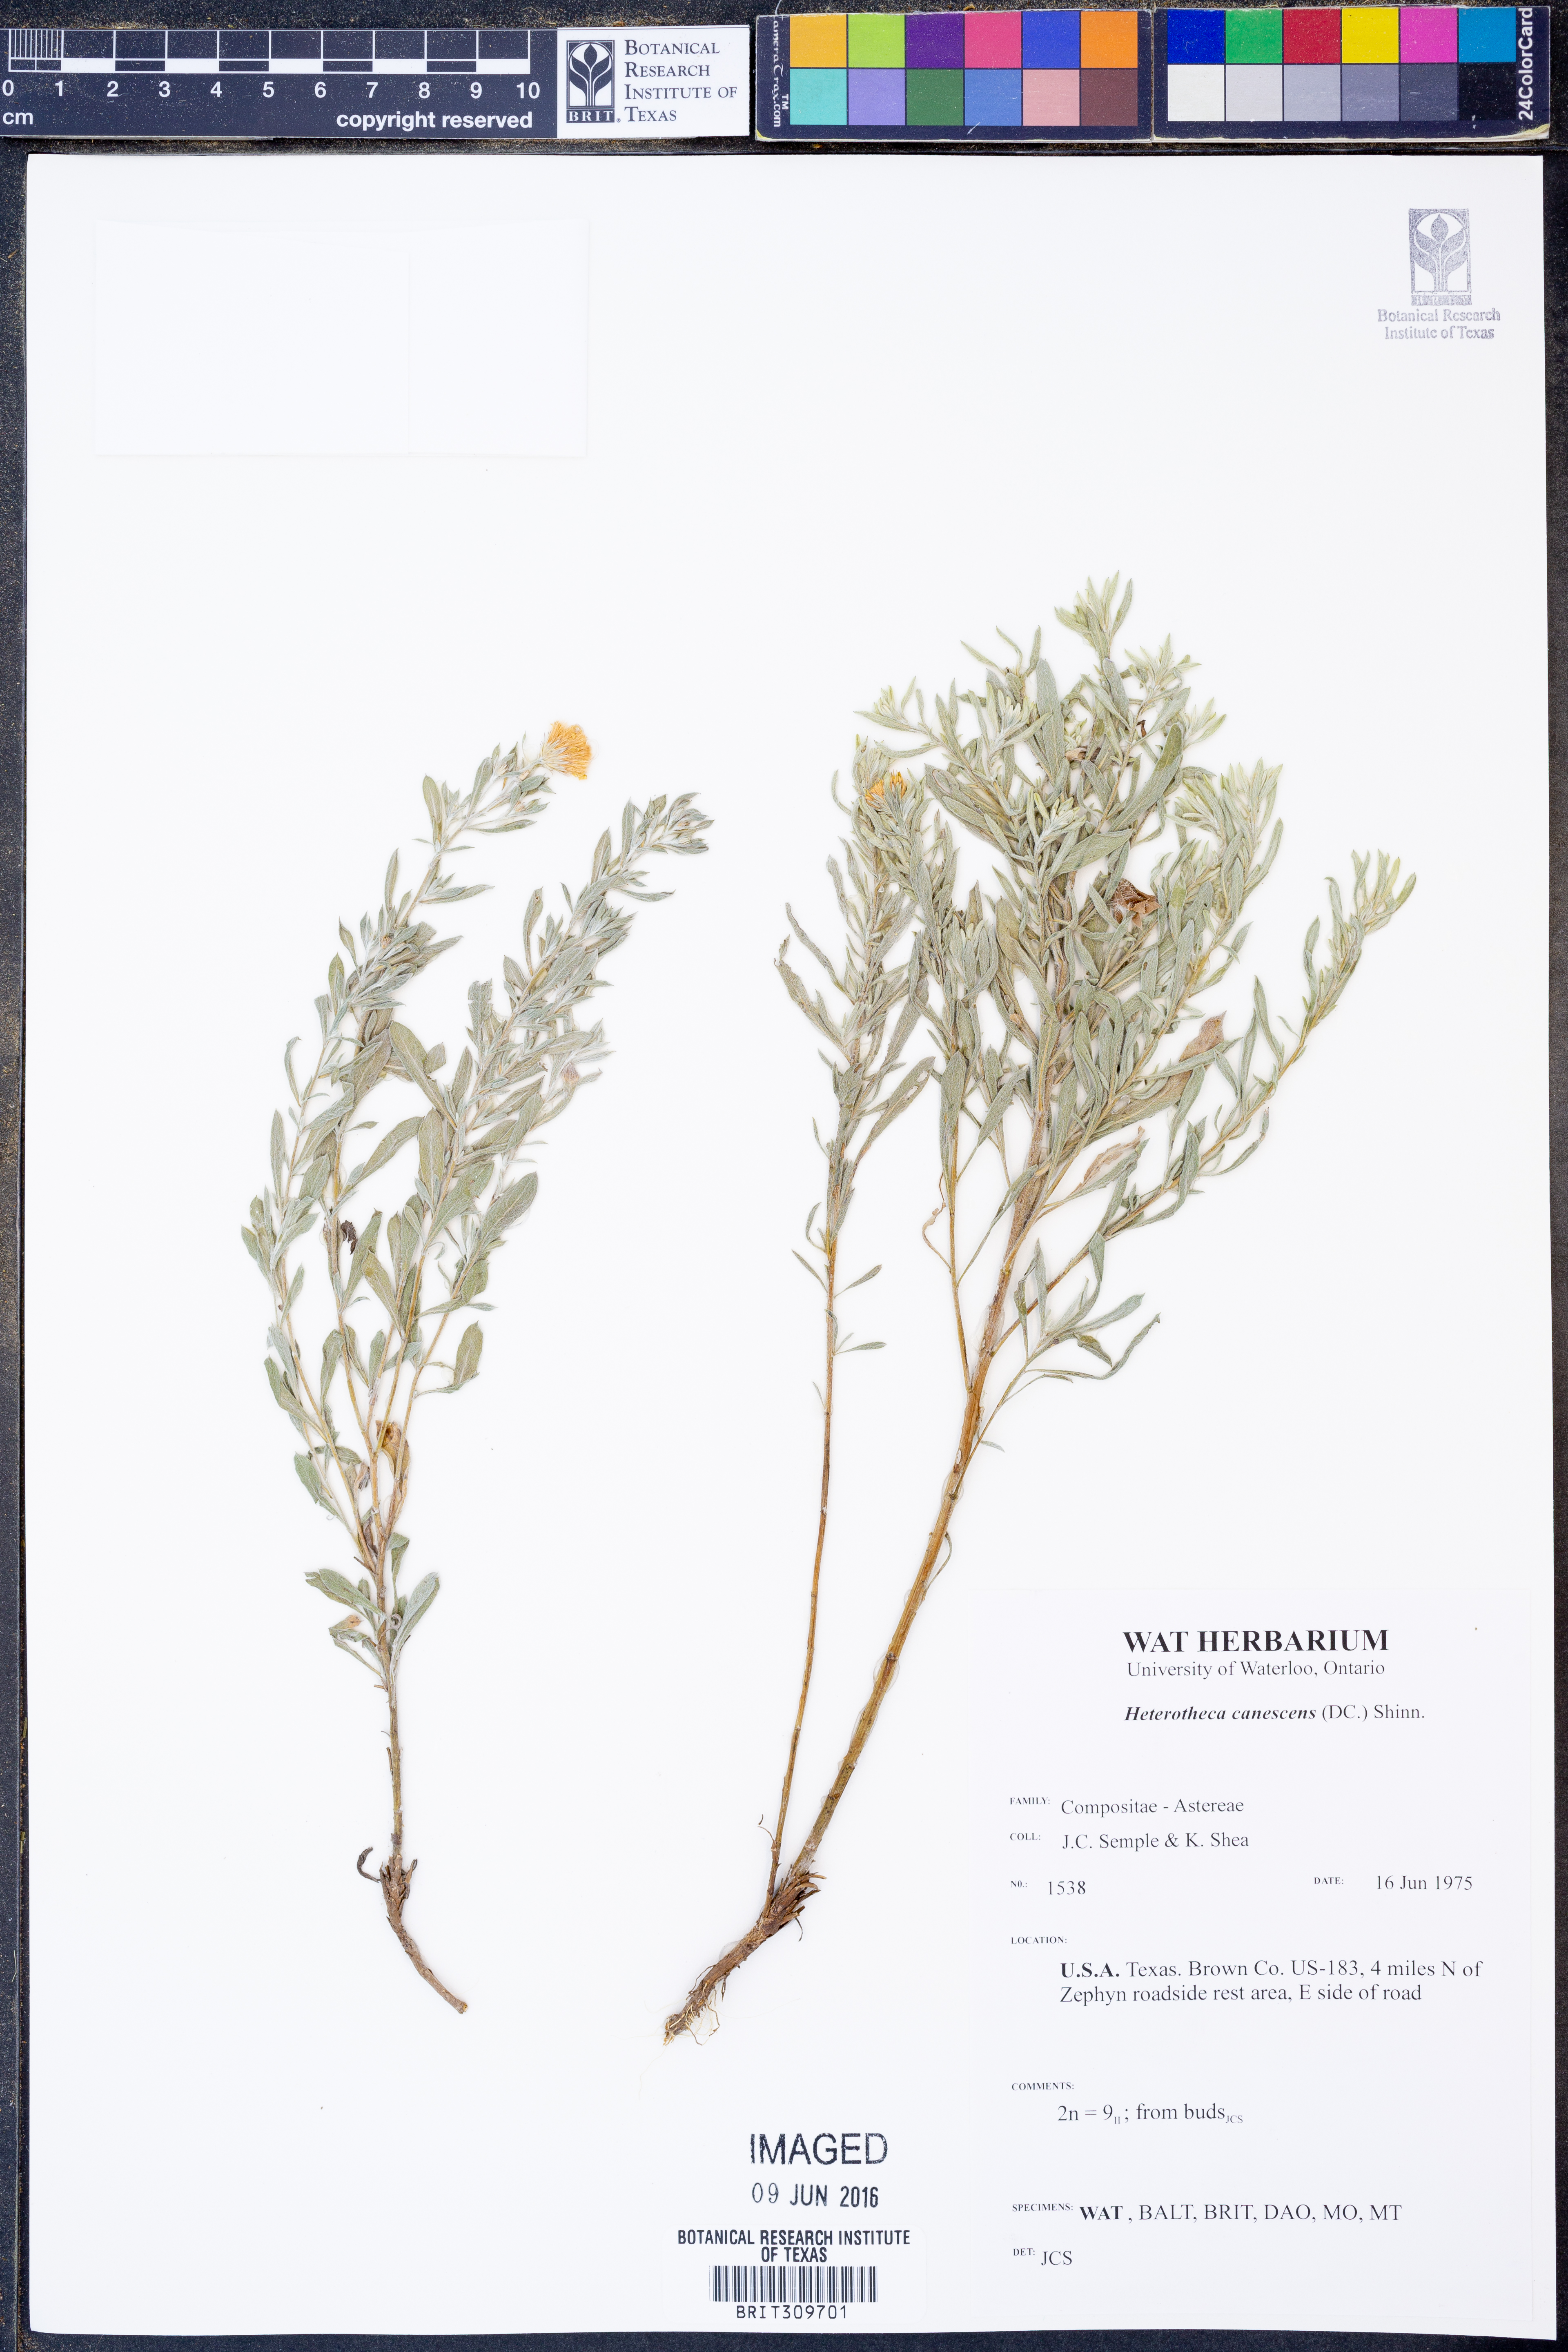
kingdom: Plantae
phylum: Tracheophyta
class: Magnoliopsida
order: Asterales
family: Asteraceae
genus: Heterotheca
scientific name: Heterotheca canescens
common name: Hoary golden-aster
